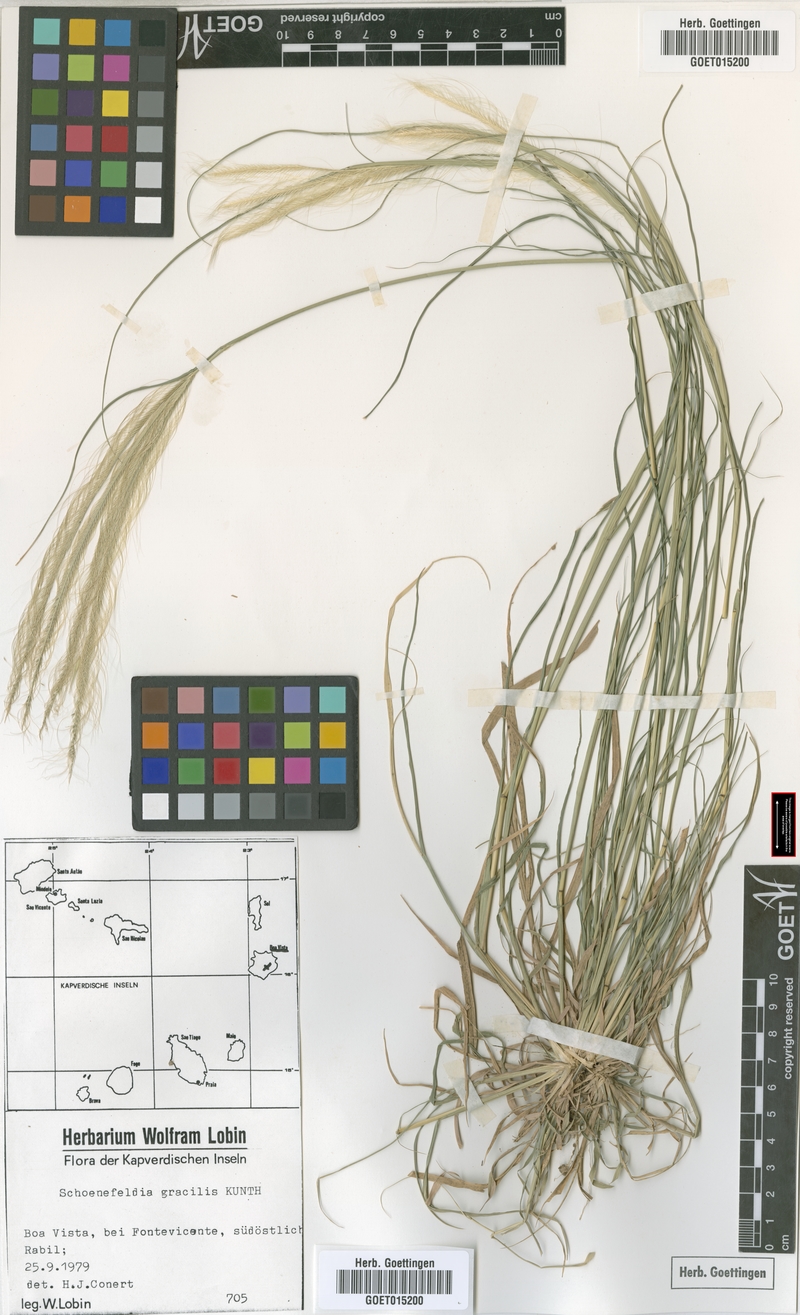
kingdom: Plantae
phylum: Tracheophyta
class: Liliopsida
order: Poales
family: Poaceae
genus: Schoenefeldia
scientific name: Schoenefeldia gracilis
